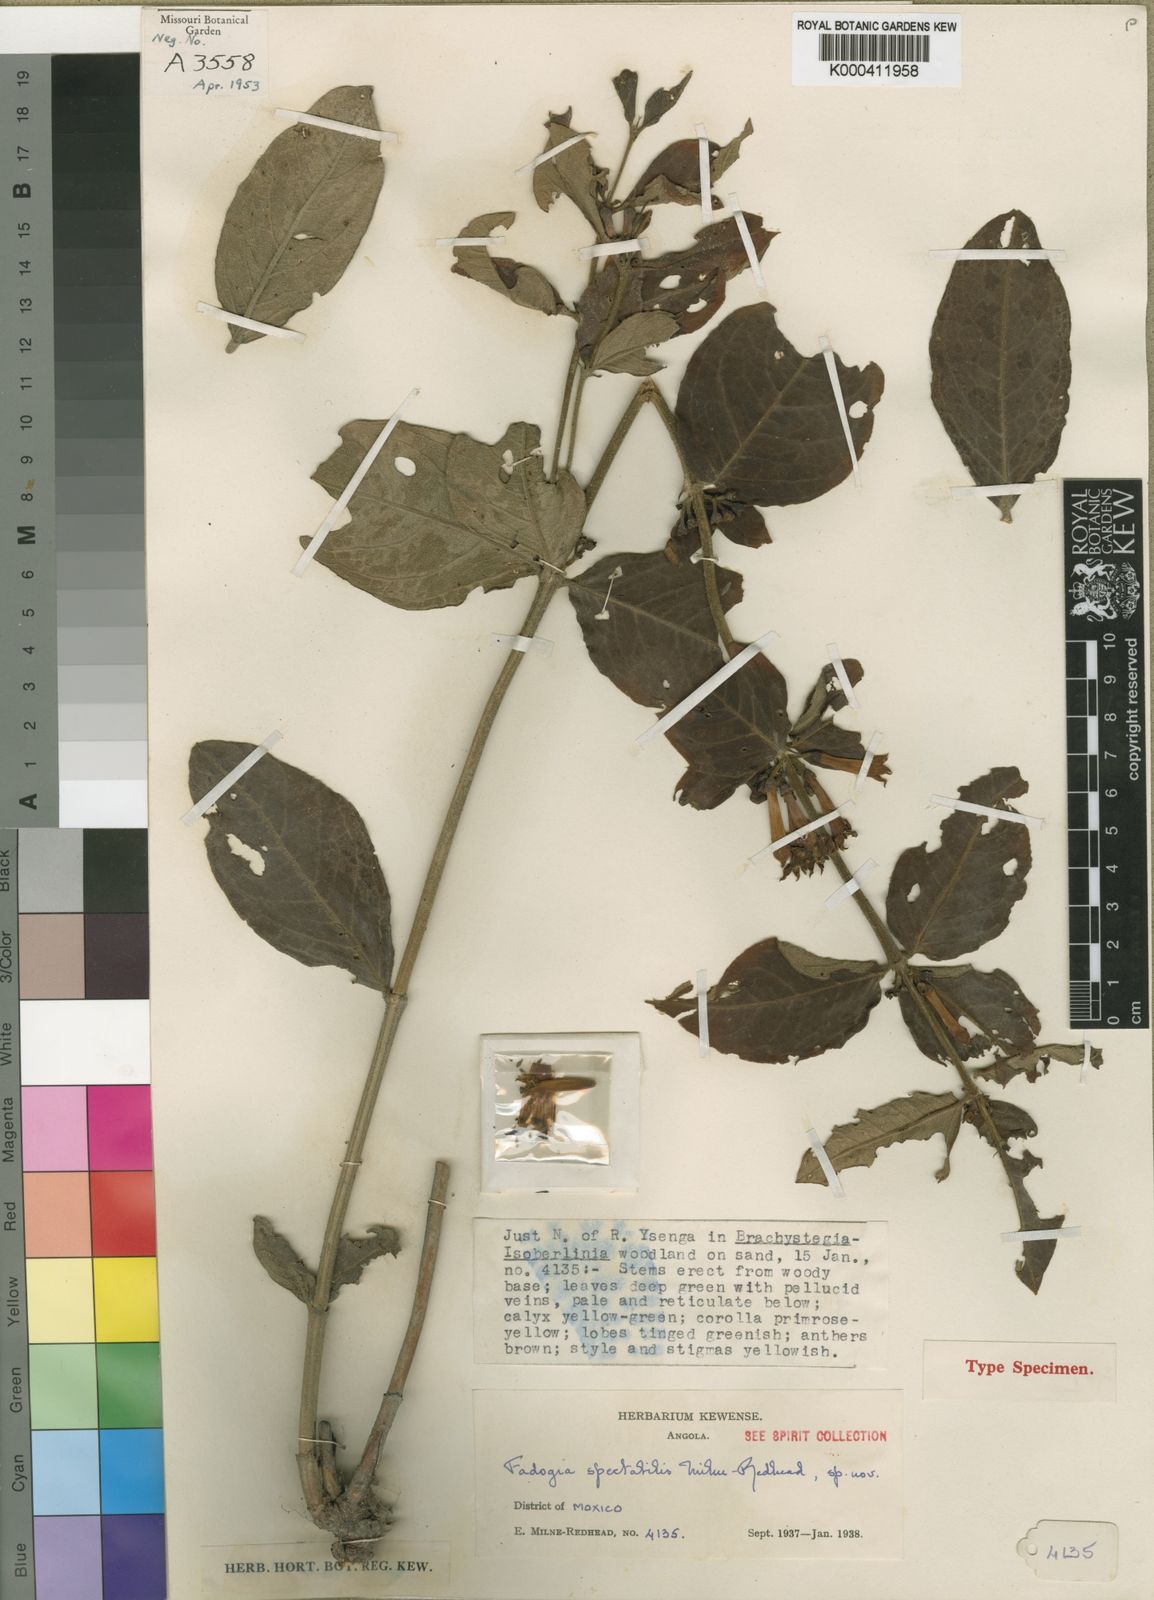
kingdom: Plantae
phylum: Tracheophyta
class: Magnoliopsida
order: Gentianales
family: Rubiaceae
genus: Fadogia
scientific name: Fadogia spectabilis
